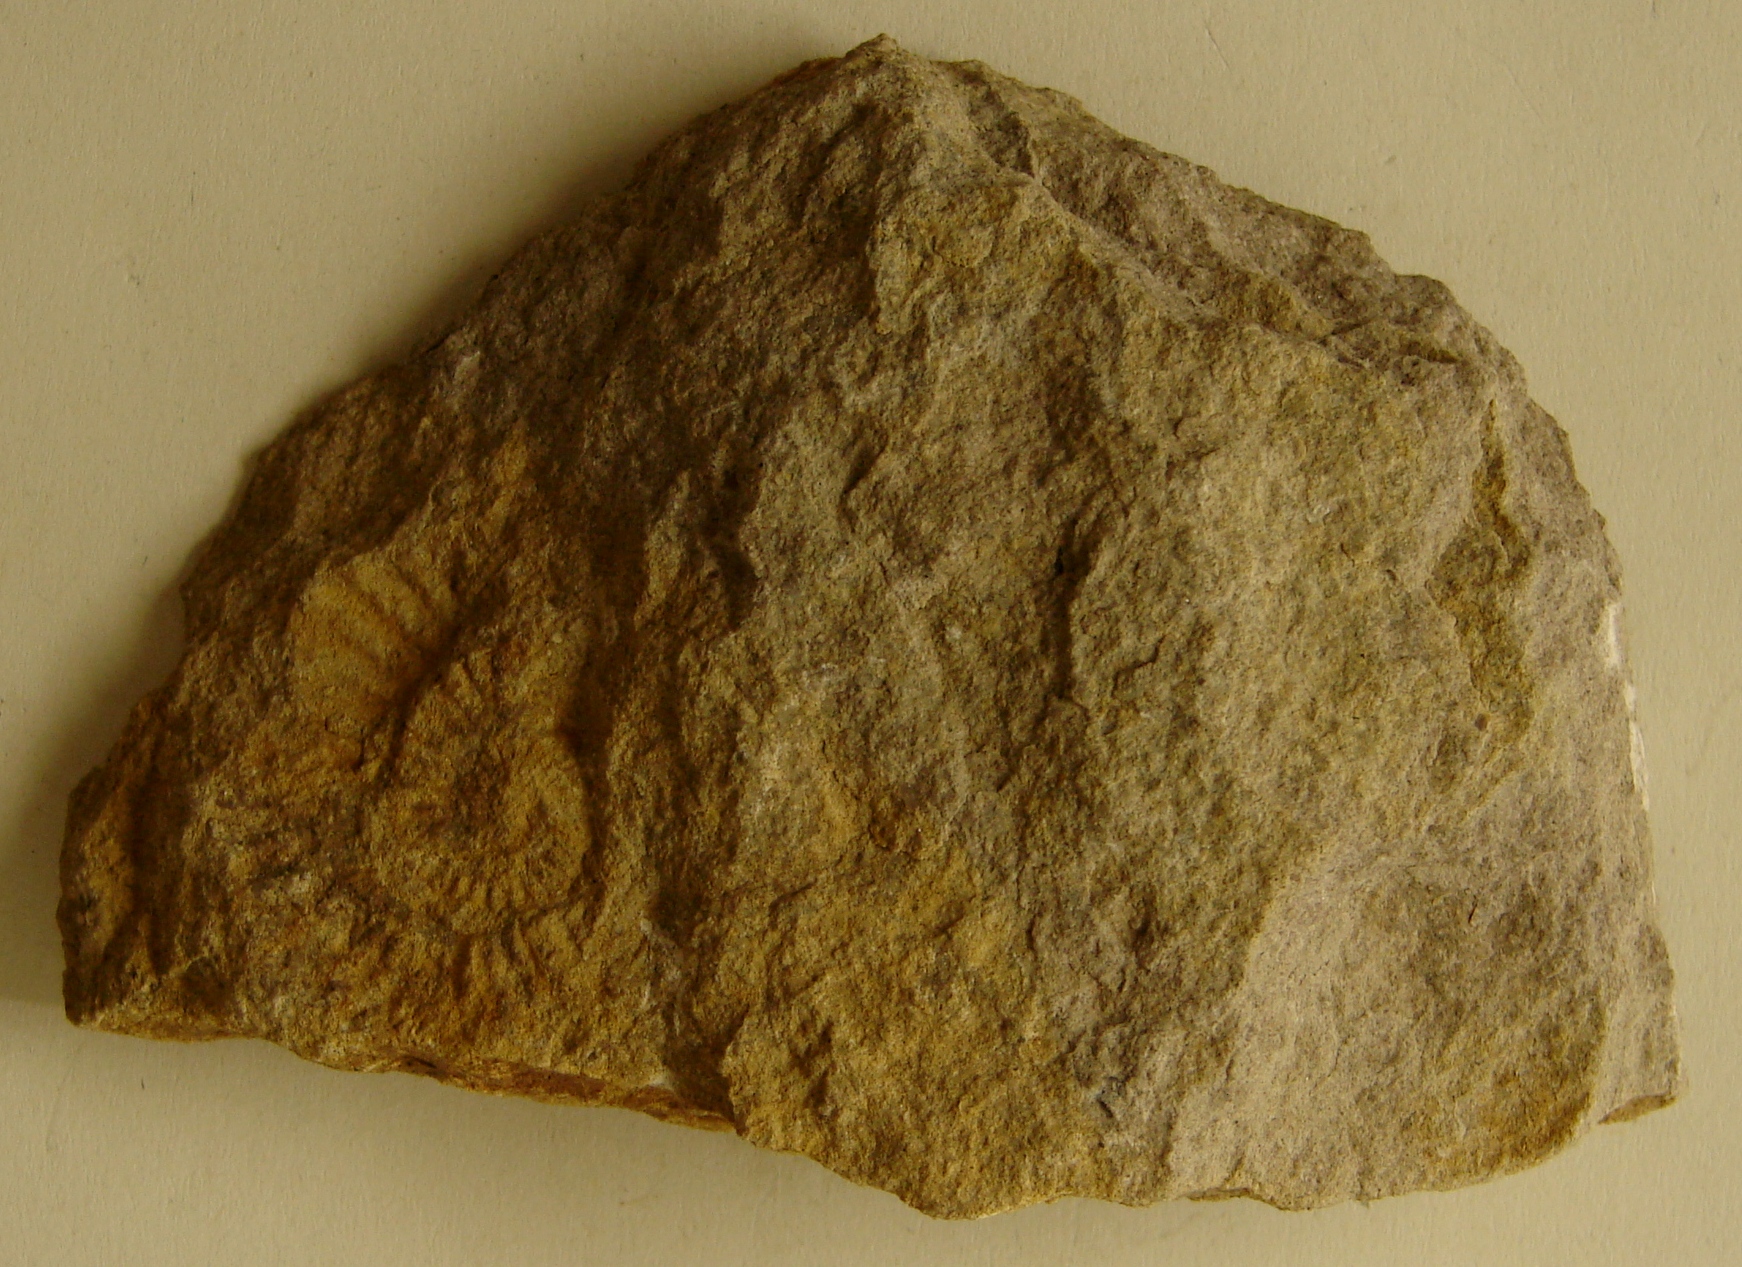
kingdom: Animalia
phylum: Mollusca
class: Cephalopoda
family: Schlotheimiidae
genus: Waehneroceras
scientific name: Waehneroceras
